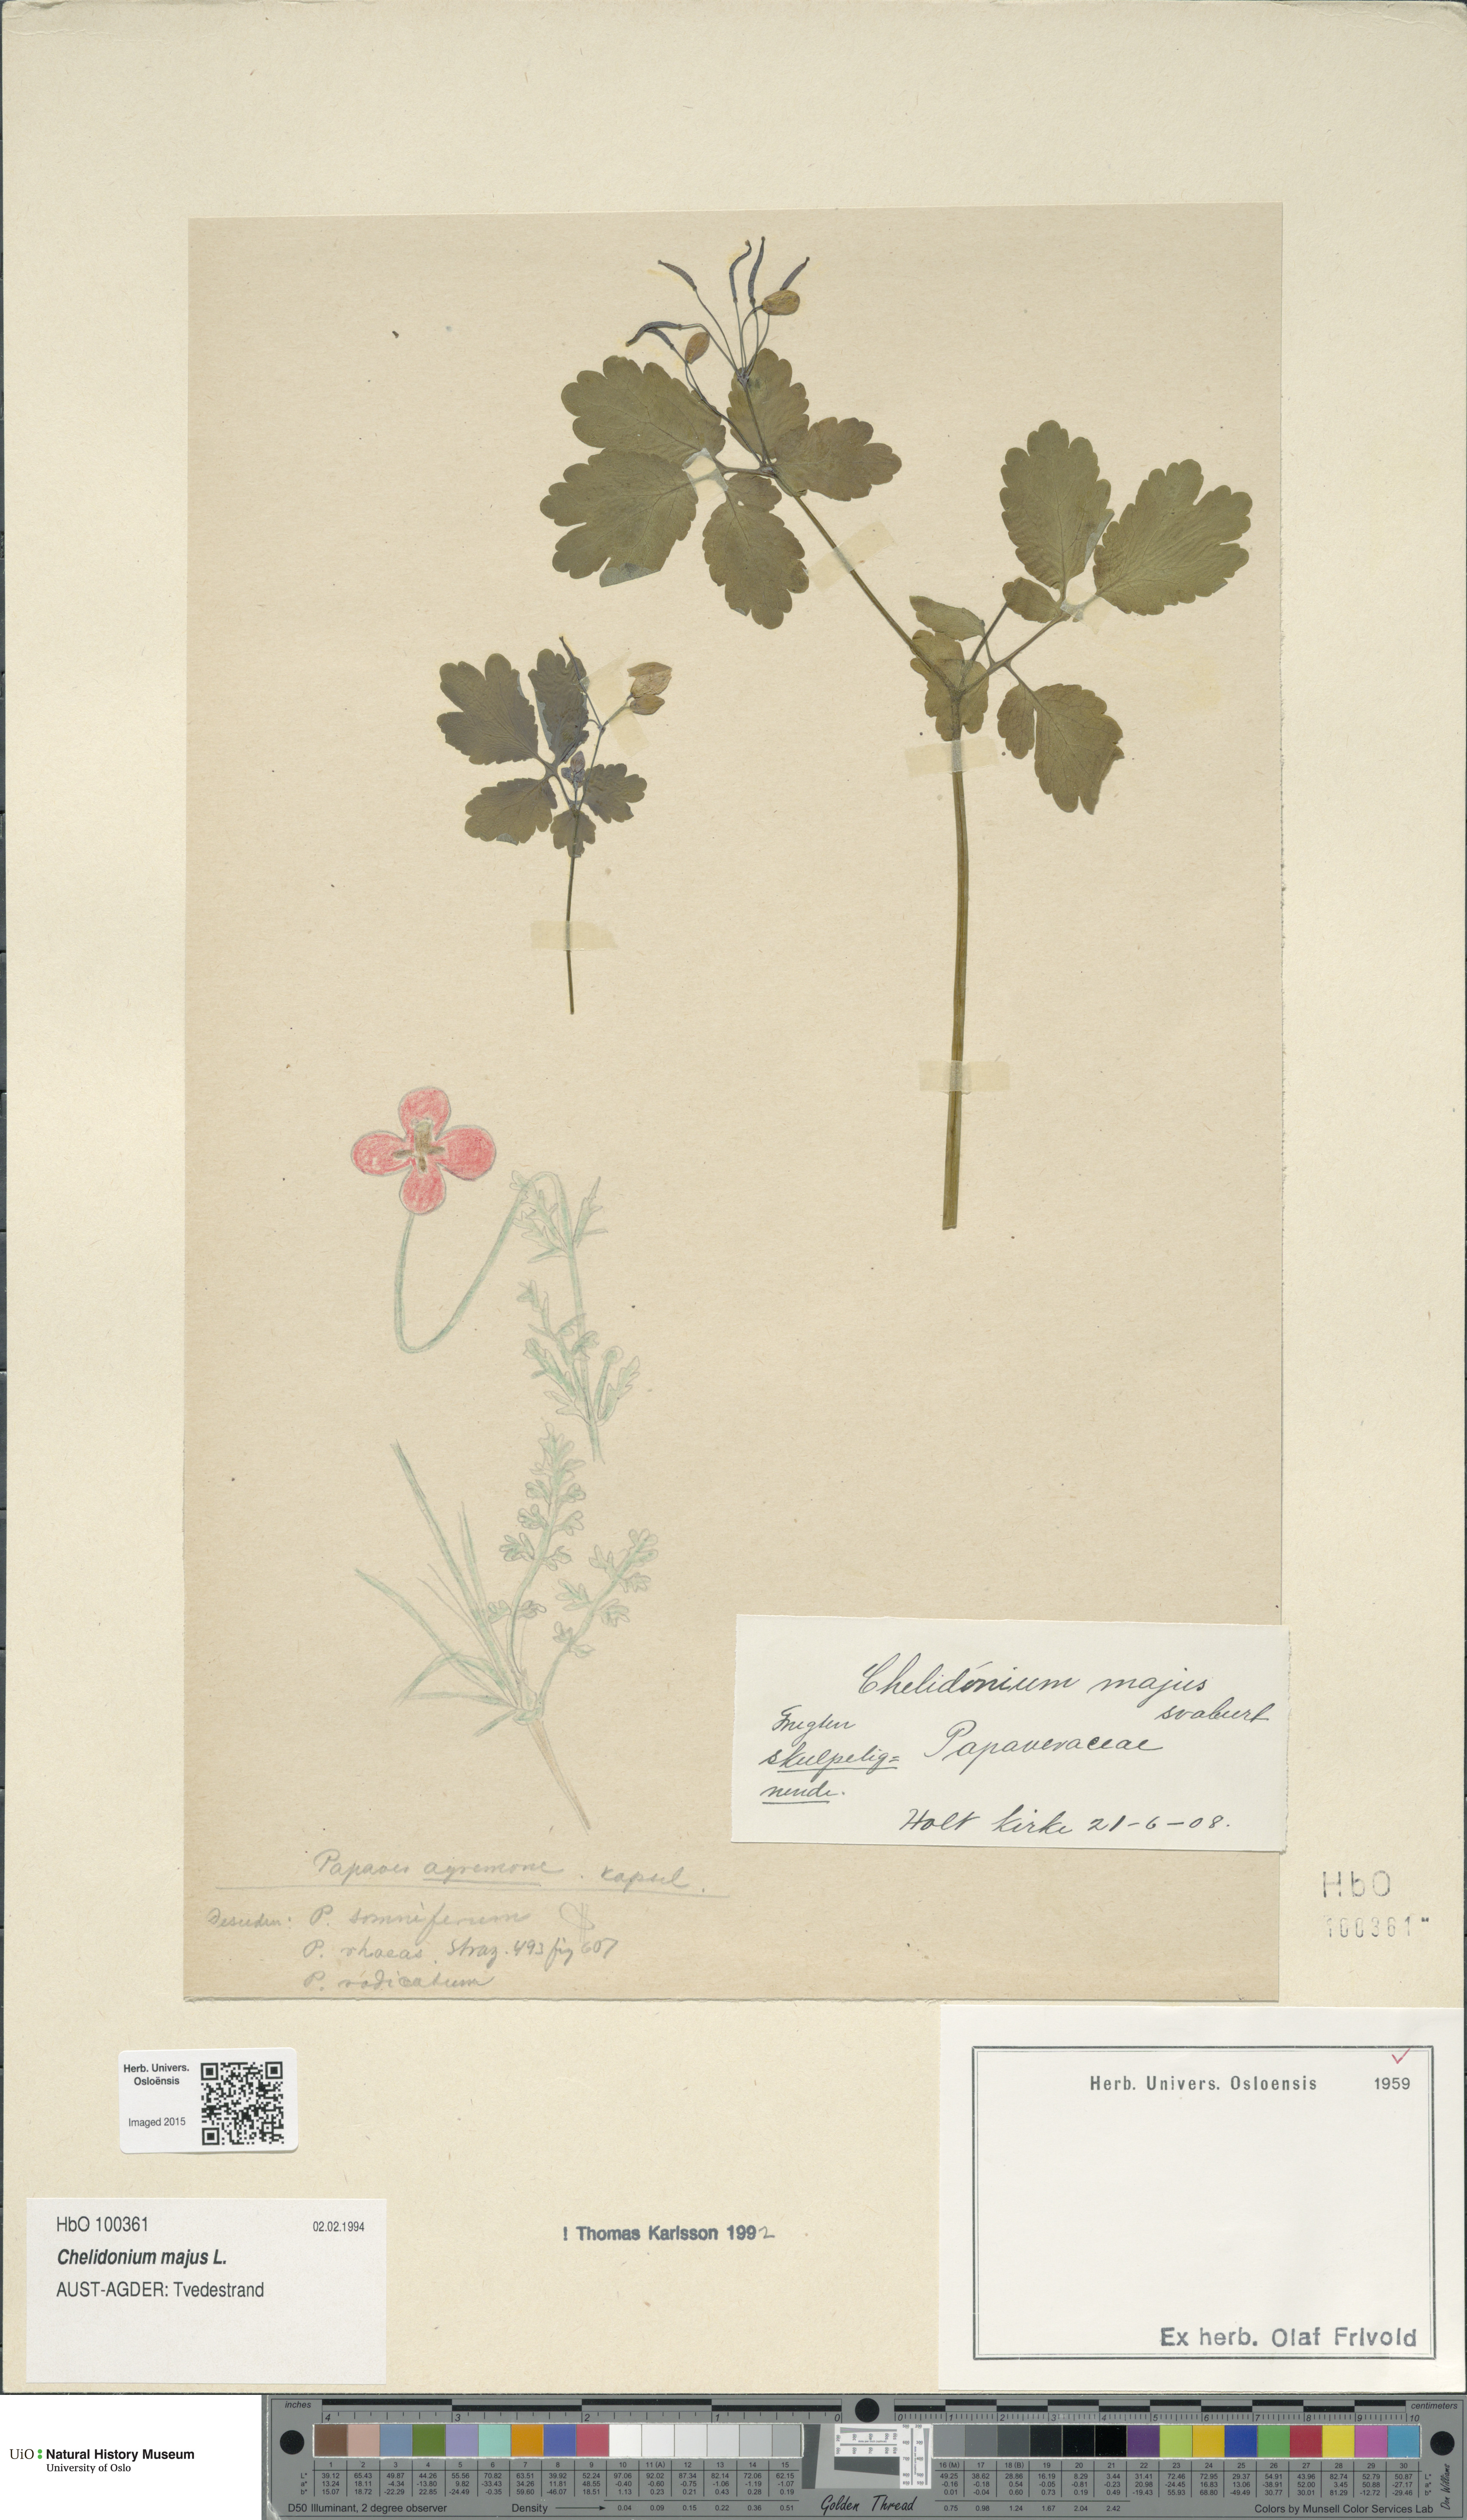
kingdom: Plantae
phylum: Tracheophyta
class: Magnoliopsida
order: Ranunculales
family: Papaveraceae
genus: Chelidonium
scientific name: Chelidonium majus
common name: Greater celandine
